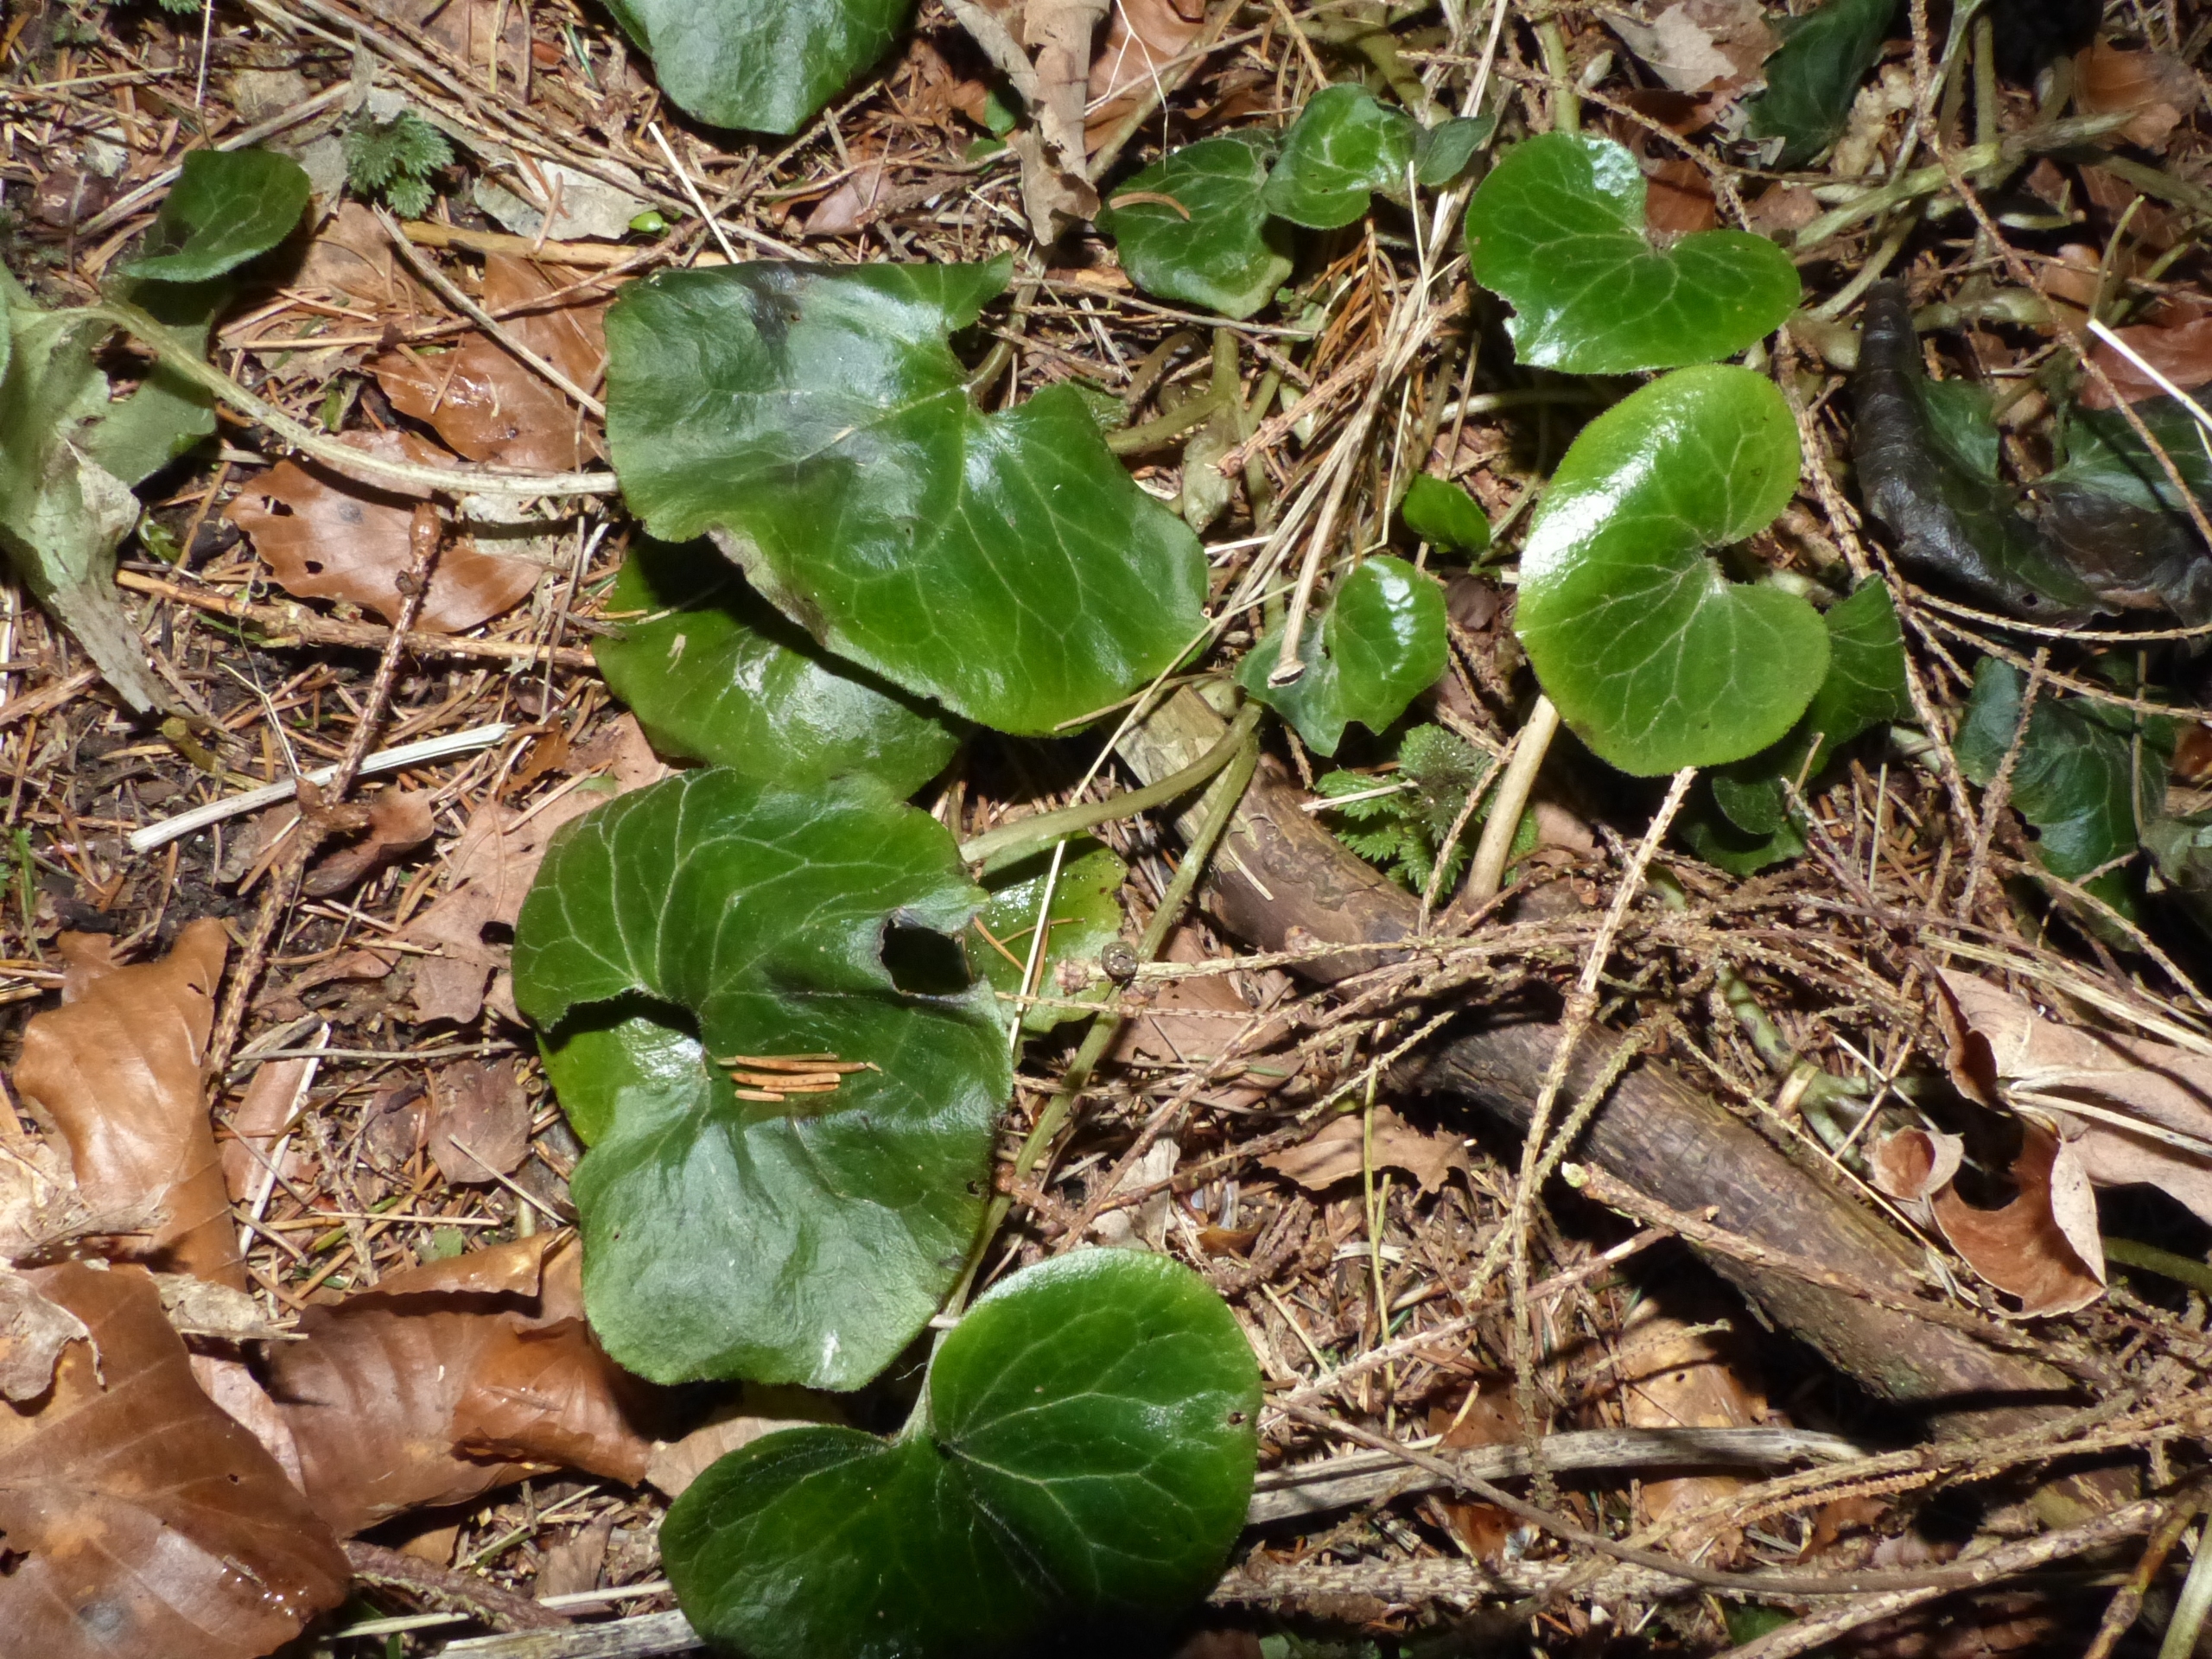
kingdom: Plantae
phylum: Tracheophyta
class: Magnoliopsida
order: Piperales
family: Aristolochiaceae
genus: Asarum
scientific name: Asarum europaeum
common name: Hasselurt
